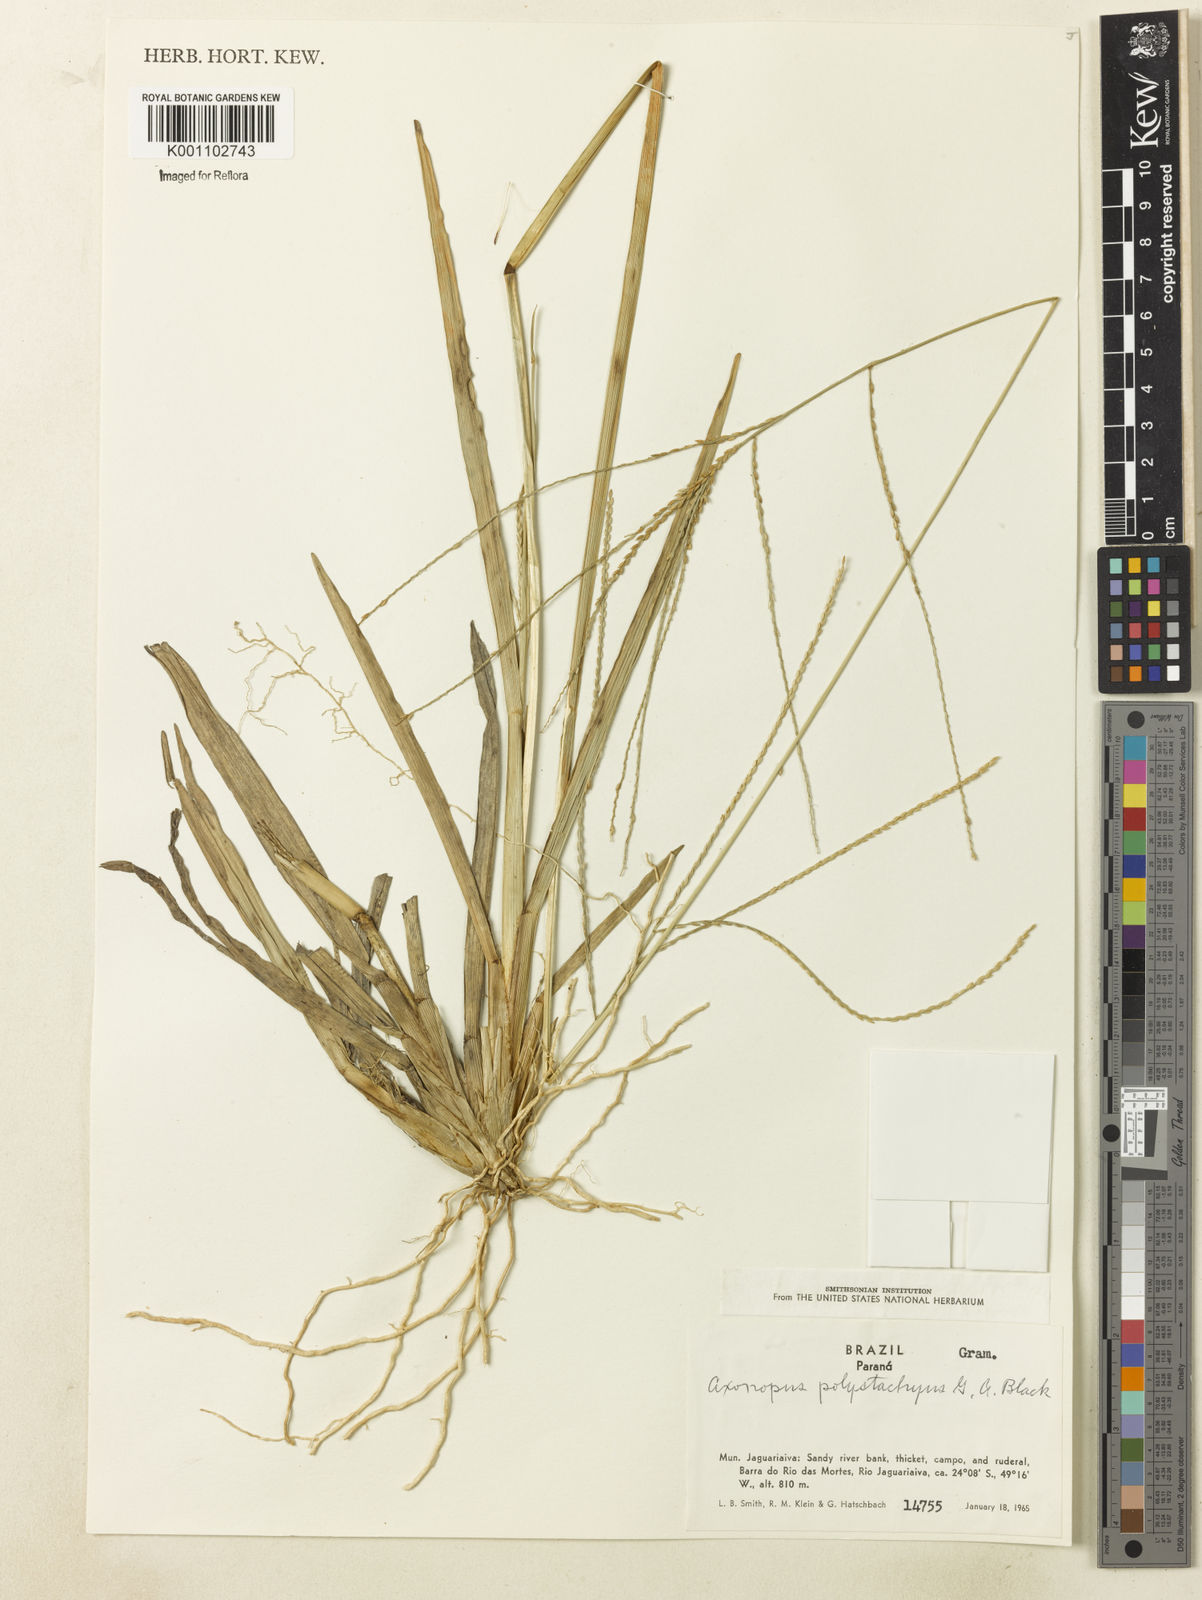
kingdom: Plantae
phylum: Tracheophyta
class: Liliopsida
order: Poales
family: Poaceae
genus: Axonopus
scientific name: Axonopus polystachyus
